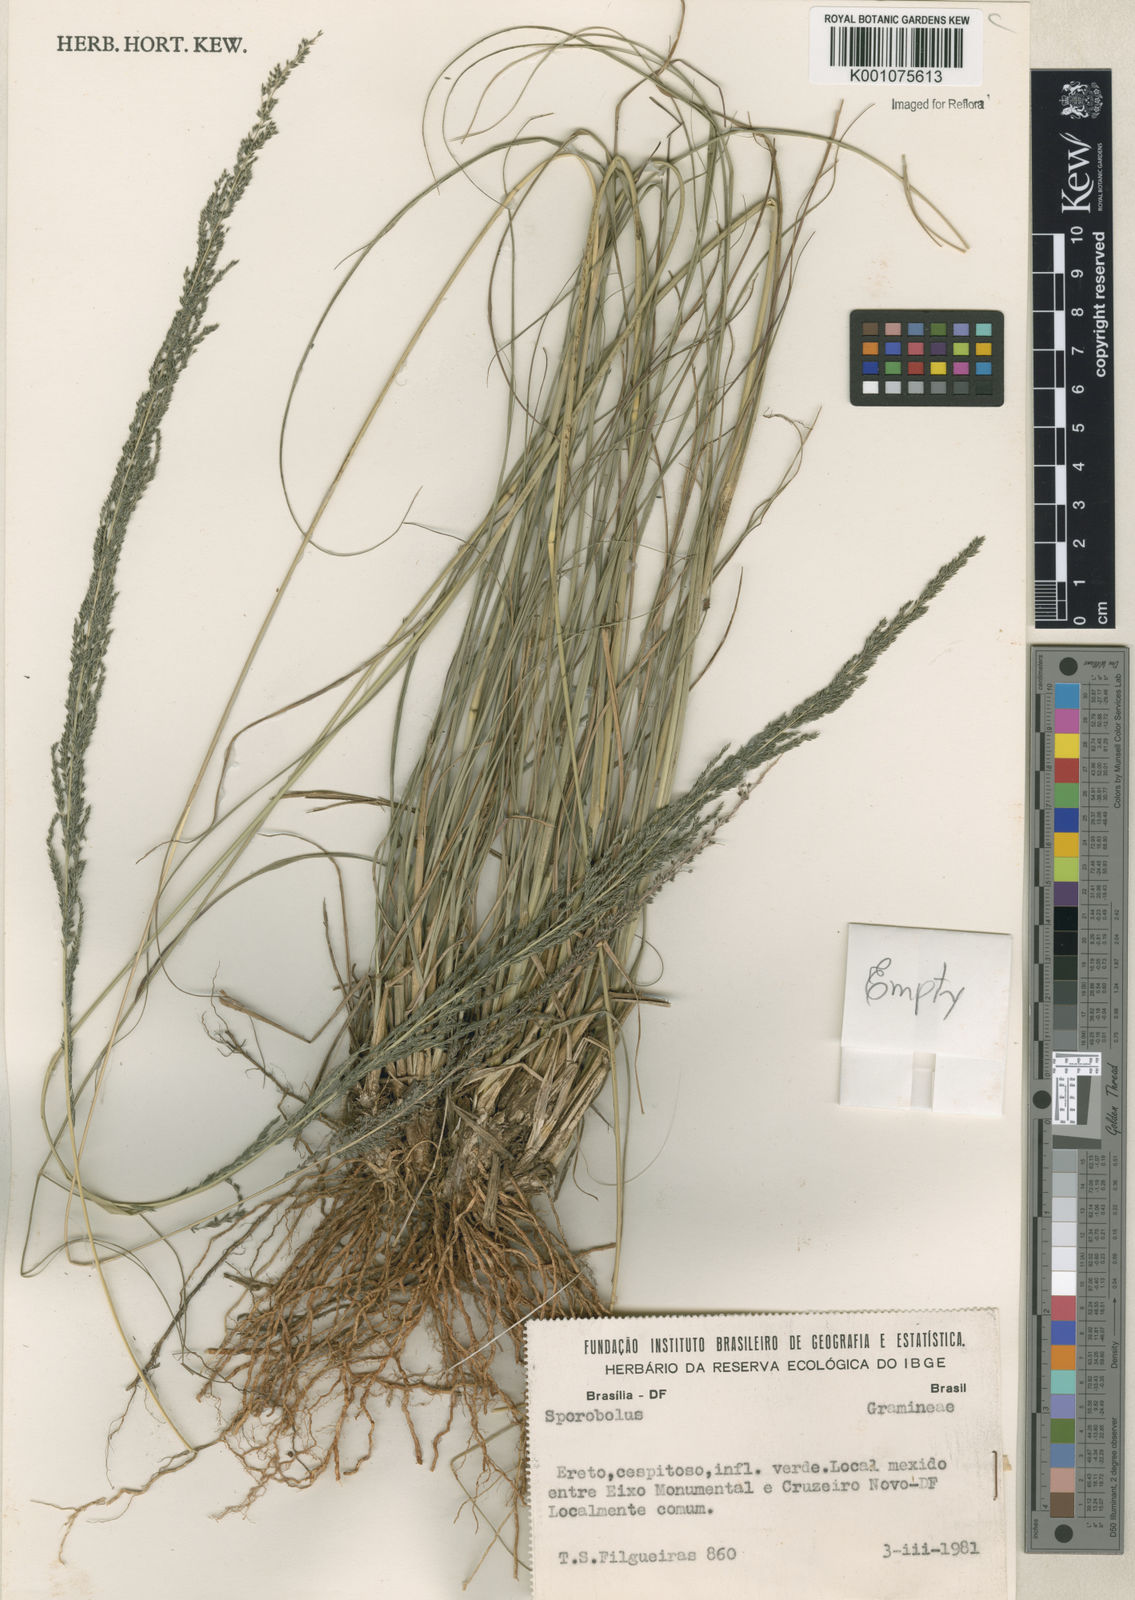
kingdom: Plantae
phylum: Tracheophyta
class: Liliopsida
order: Poales
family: Poaceae
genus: Sporobolus
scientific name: Sporobolus
